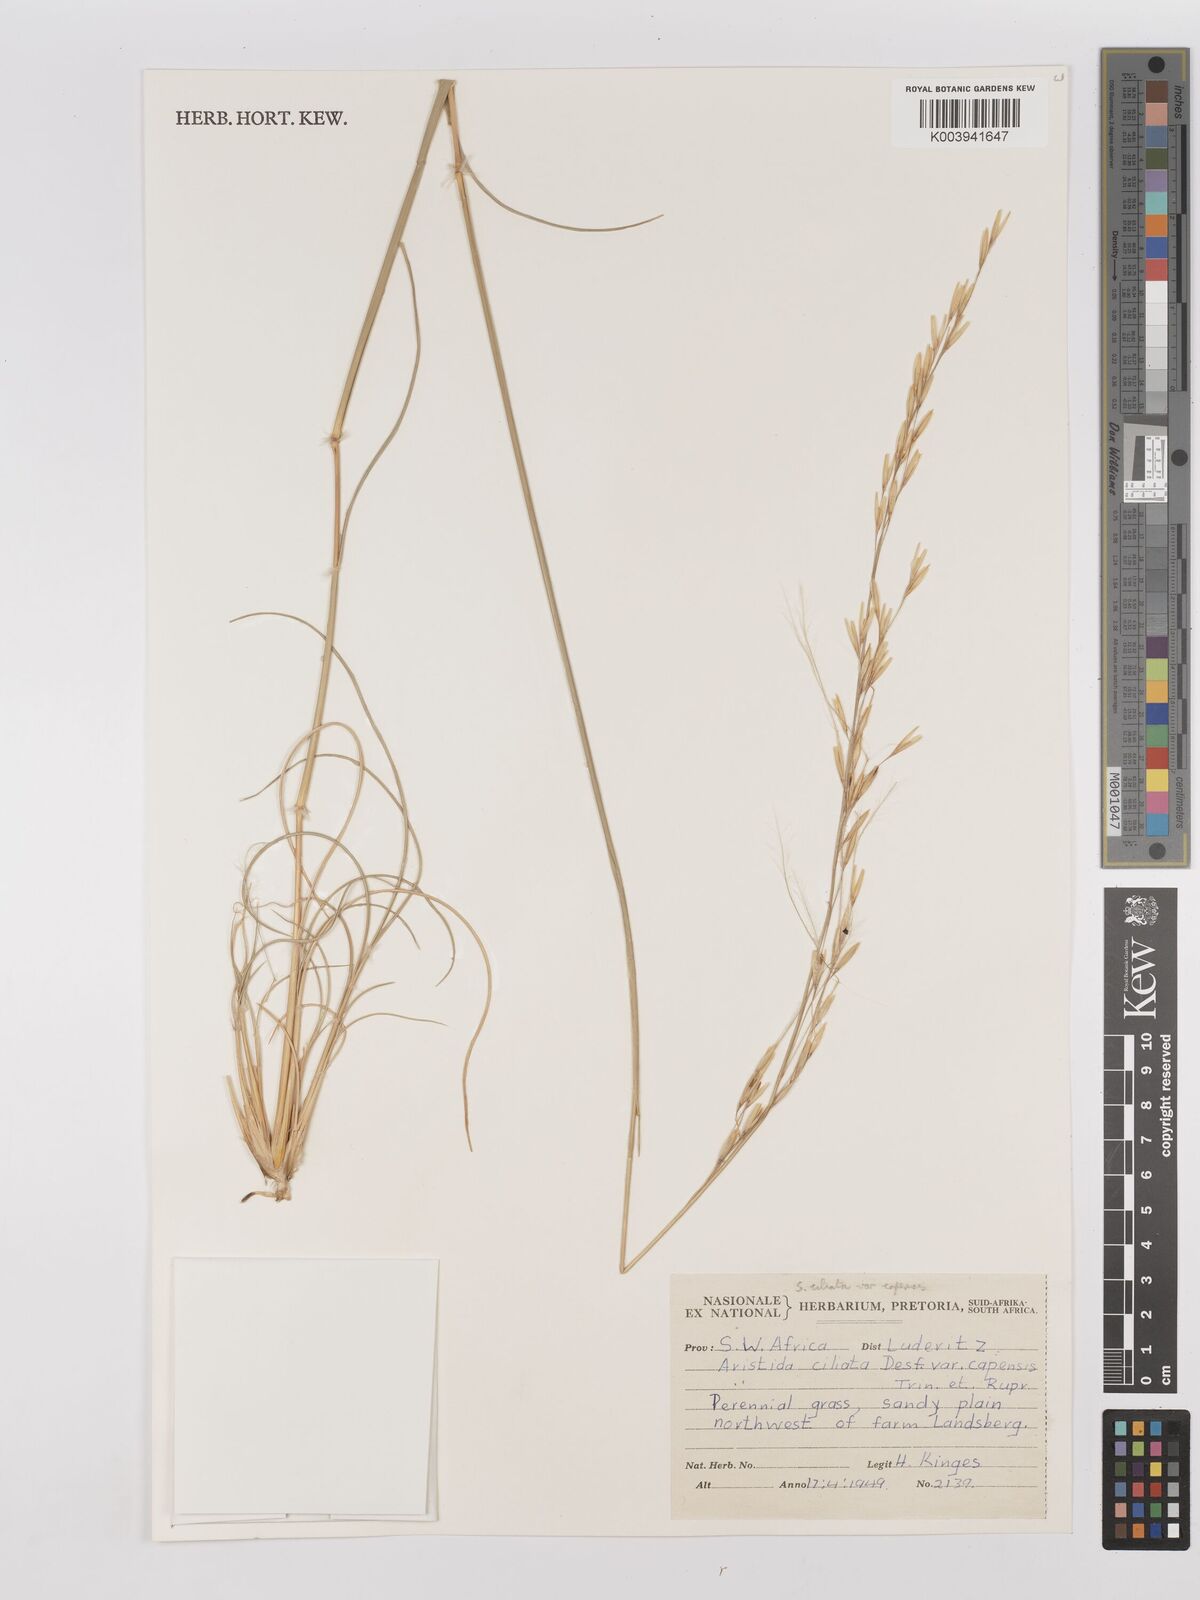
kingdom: Plantae
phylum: Tracheophyta
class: Liliopsida
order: Poales
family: Poaceae
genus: Stipagrostis
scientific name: Stipagrostis ciliata
